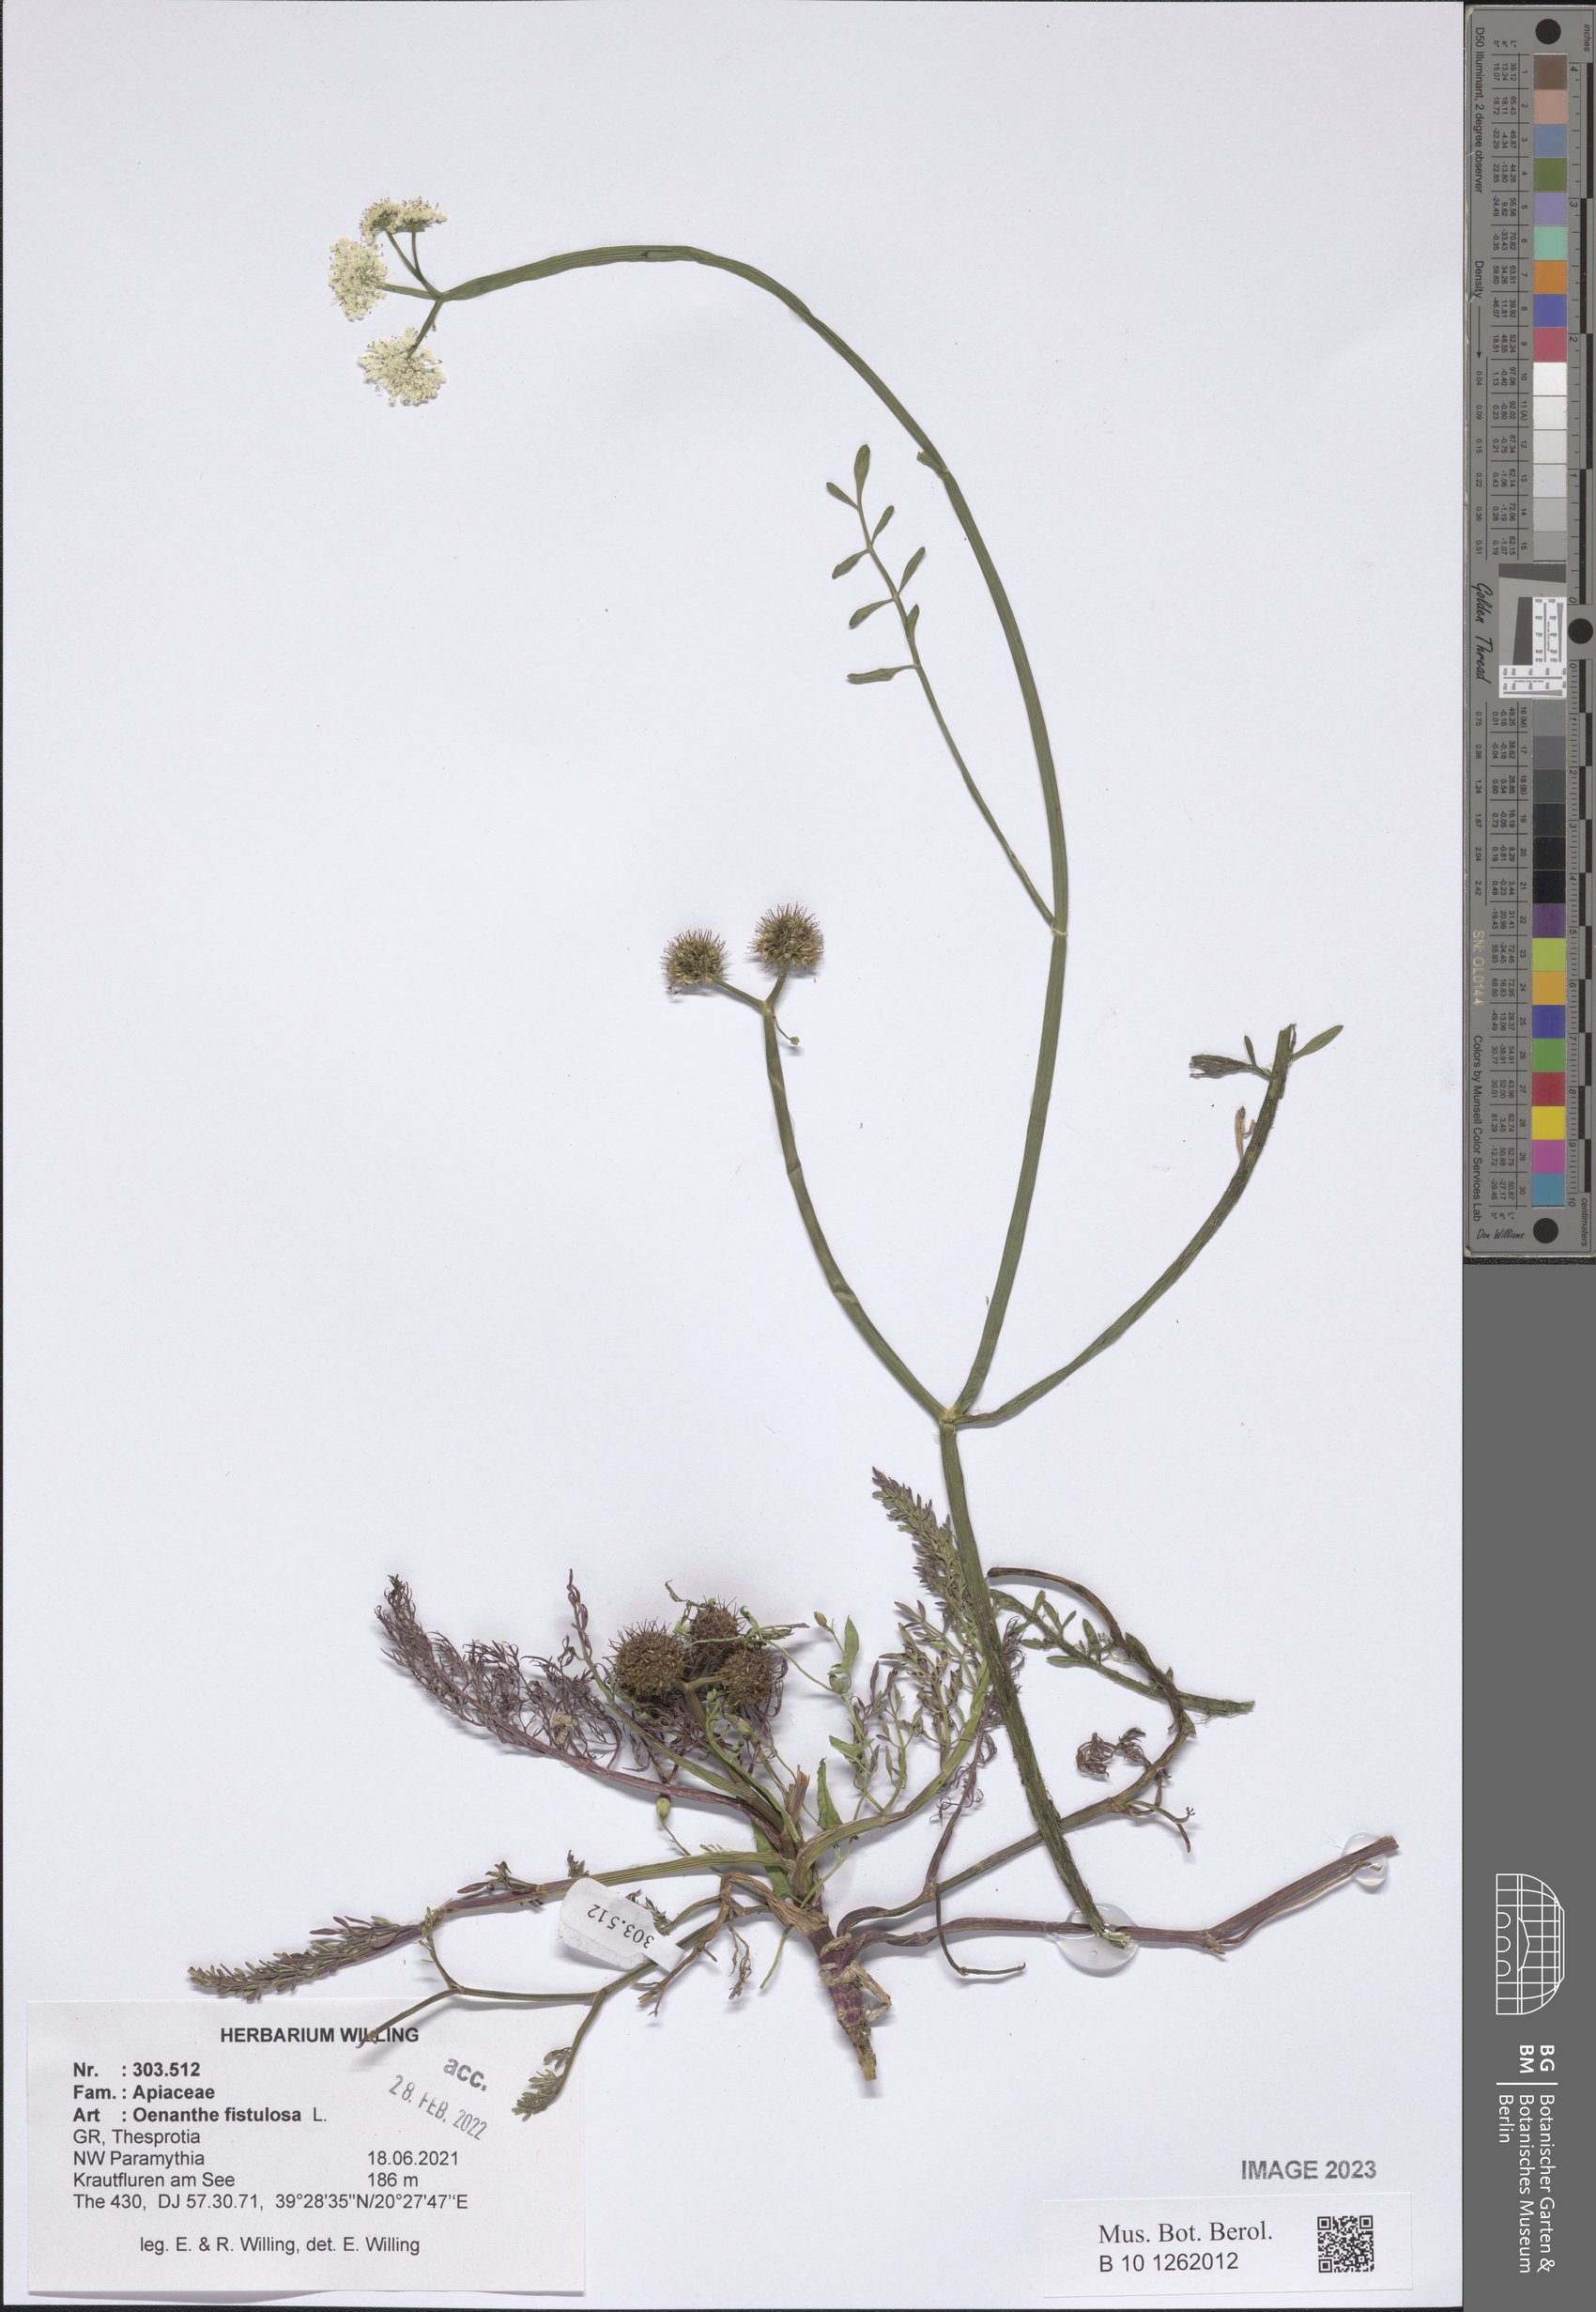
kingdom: Plantae
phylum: Tracheophyta
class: Magnoliopsida
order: Apiales
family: Apiaceae
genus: Oenanthe
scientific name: Oenanthe fistulosa
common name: Tubular water-dropwort
